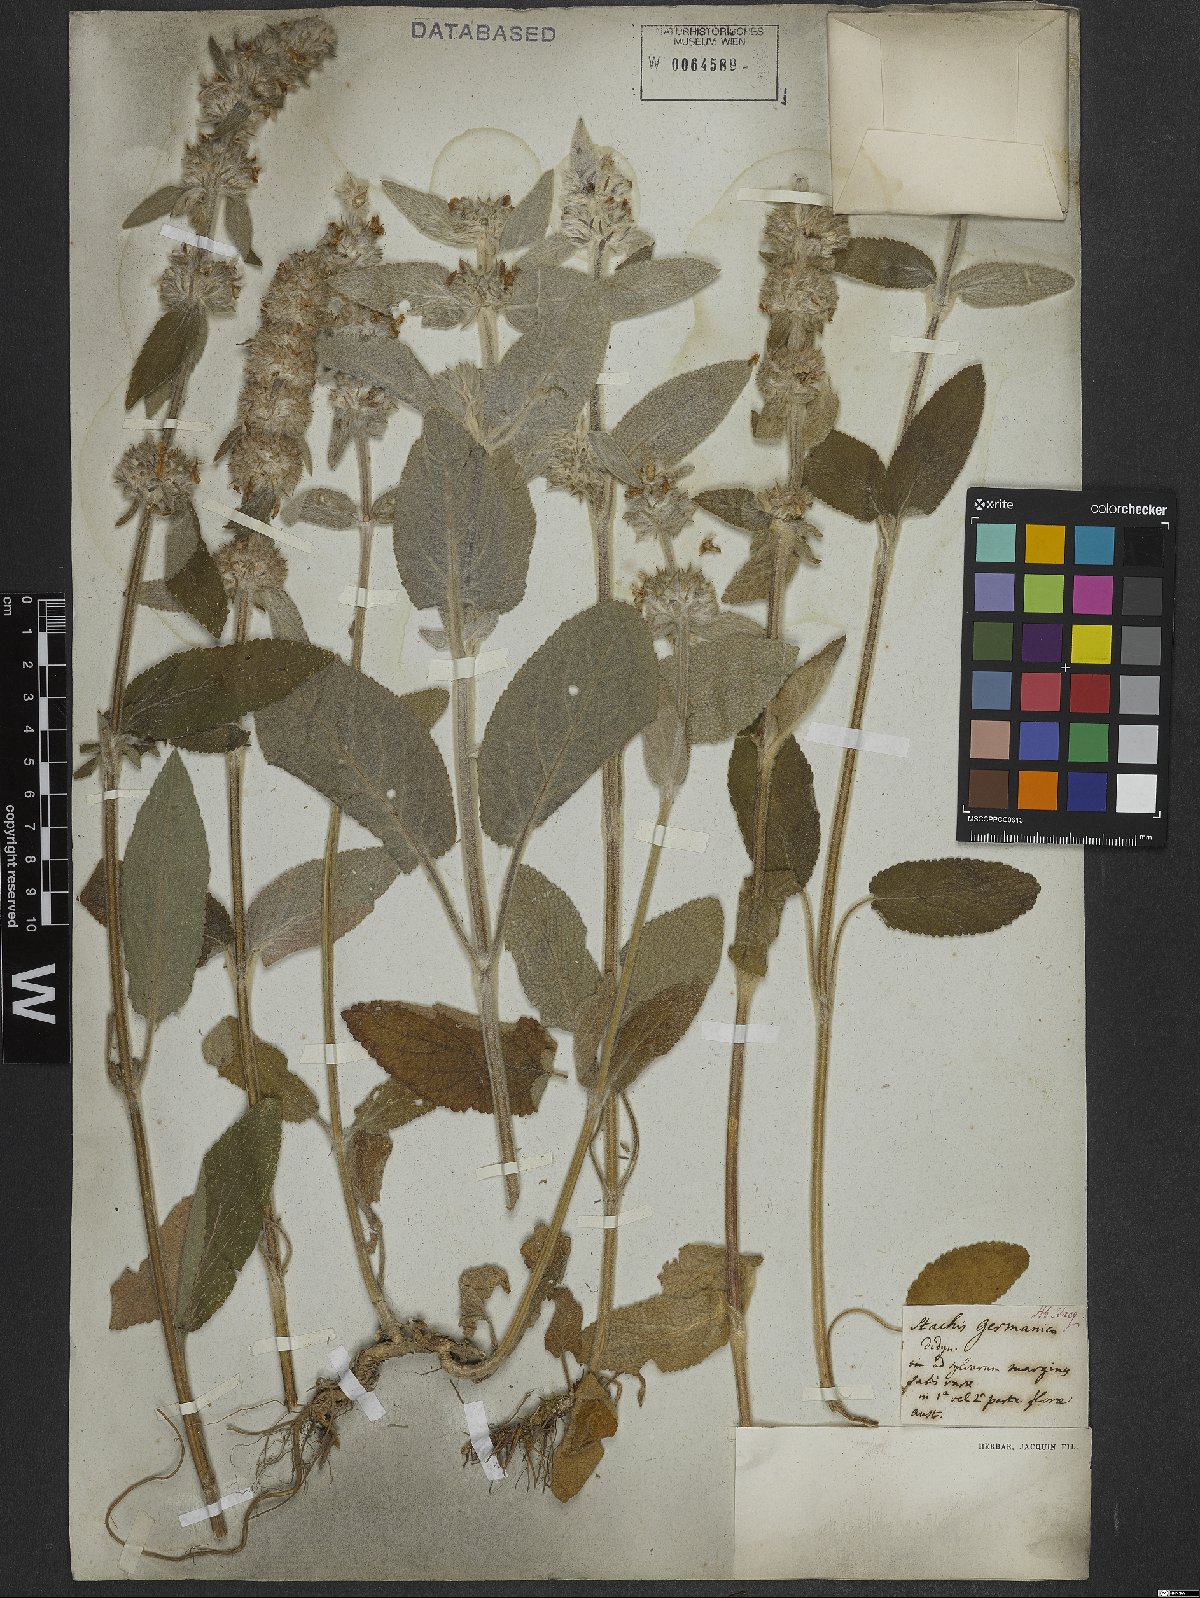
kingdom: Plantae
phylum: Tracheophyta
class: Magnoliopsida
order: Lamiales
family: Lamiaceae
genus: Stachys
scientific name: Stachys germanica
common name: Downy woundwort
